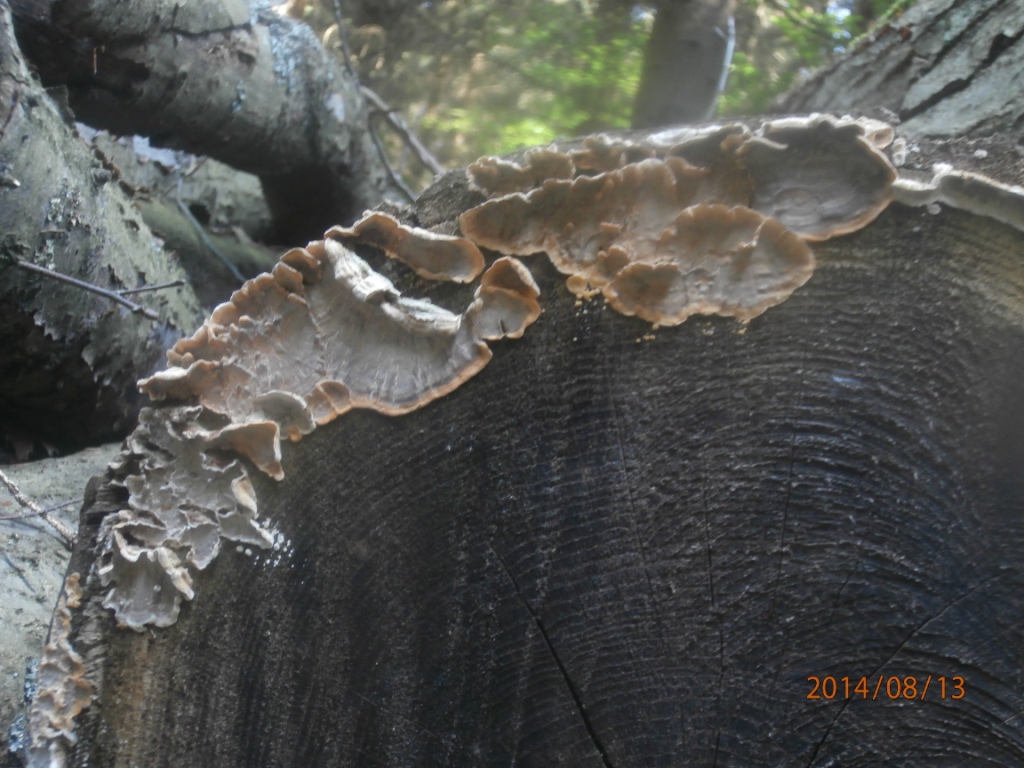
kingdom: Fungi
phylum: Basidiomycota
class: Agaricomycetes
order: Russulales
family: Stereaceae
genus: Stereum
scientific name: Stereum hirsutum
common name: håret lædersvamp
